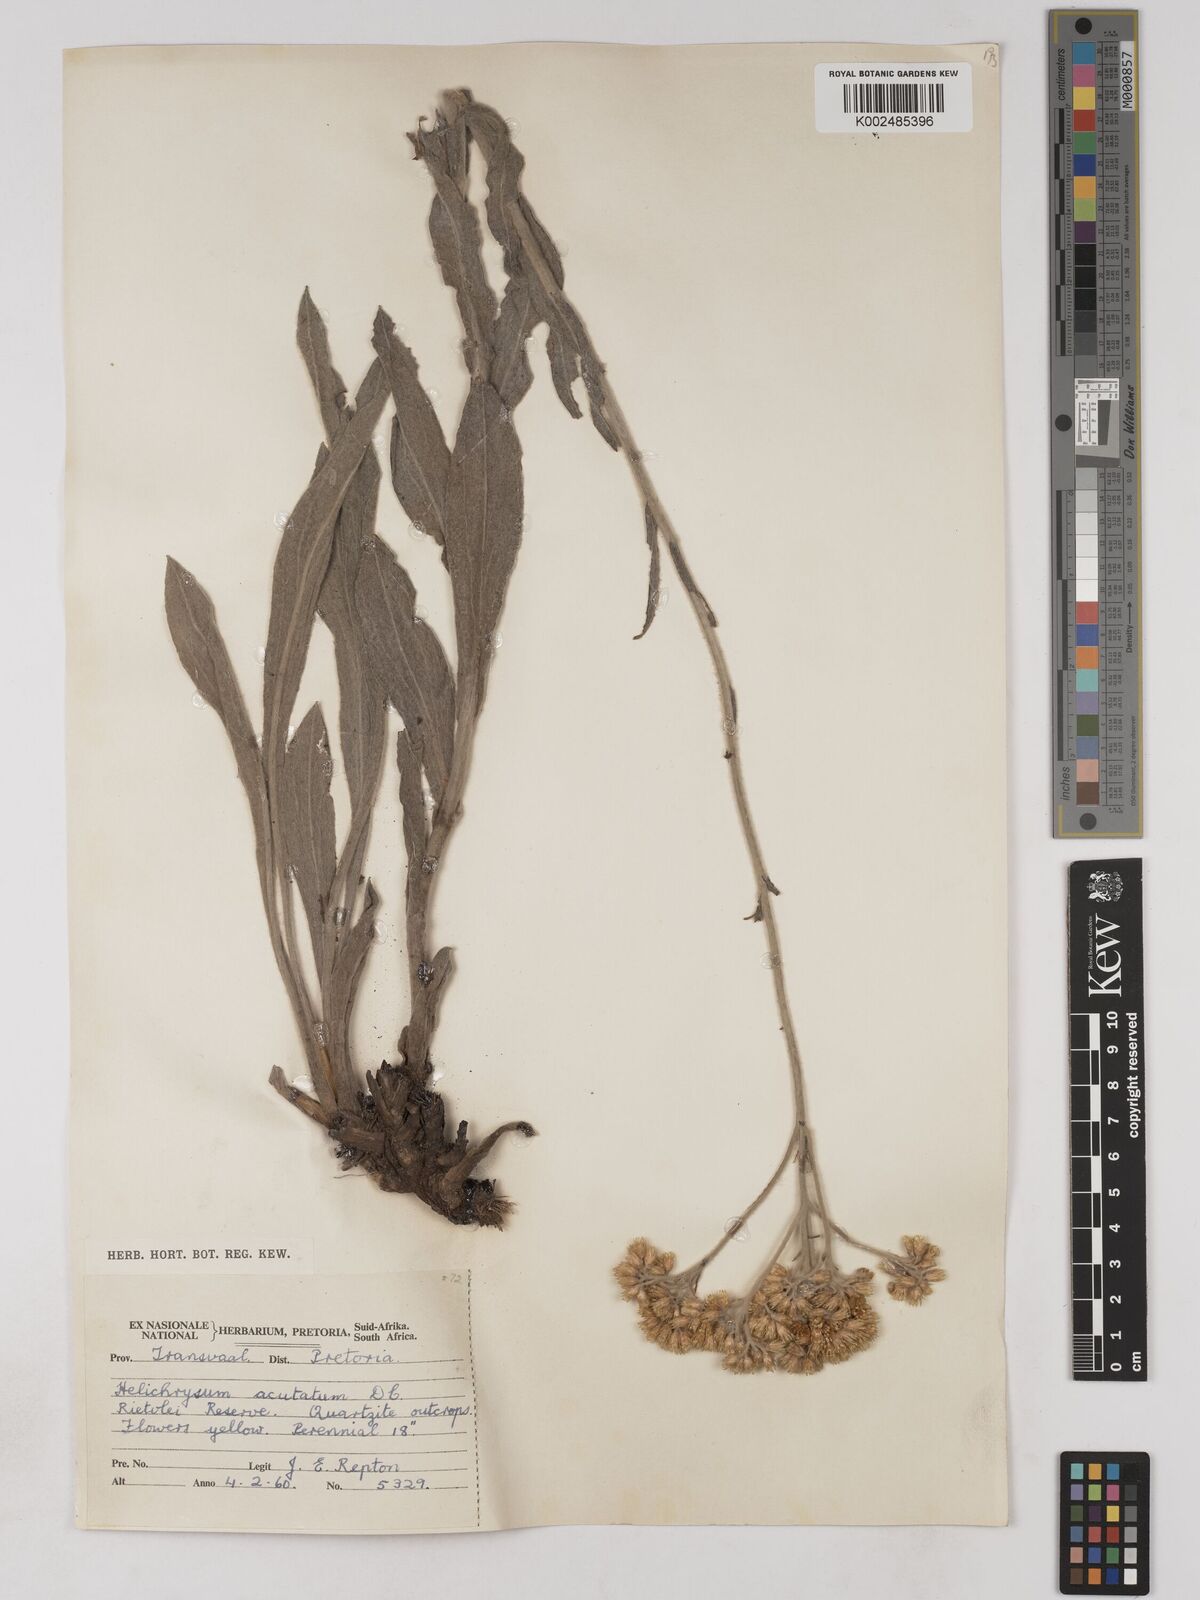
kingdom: Plantae
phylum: Tracheophyta
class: Magnoliopsida
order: Asterales
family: Asteraceae
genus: Helichrysum
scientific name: Helichrysum acutatum
